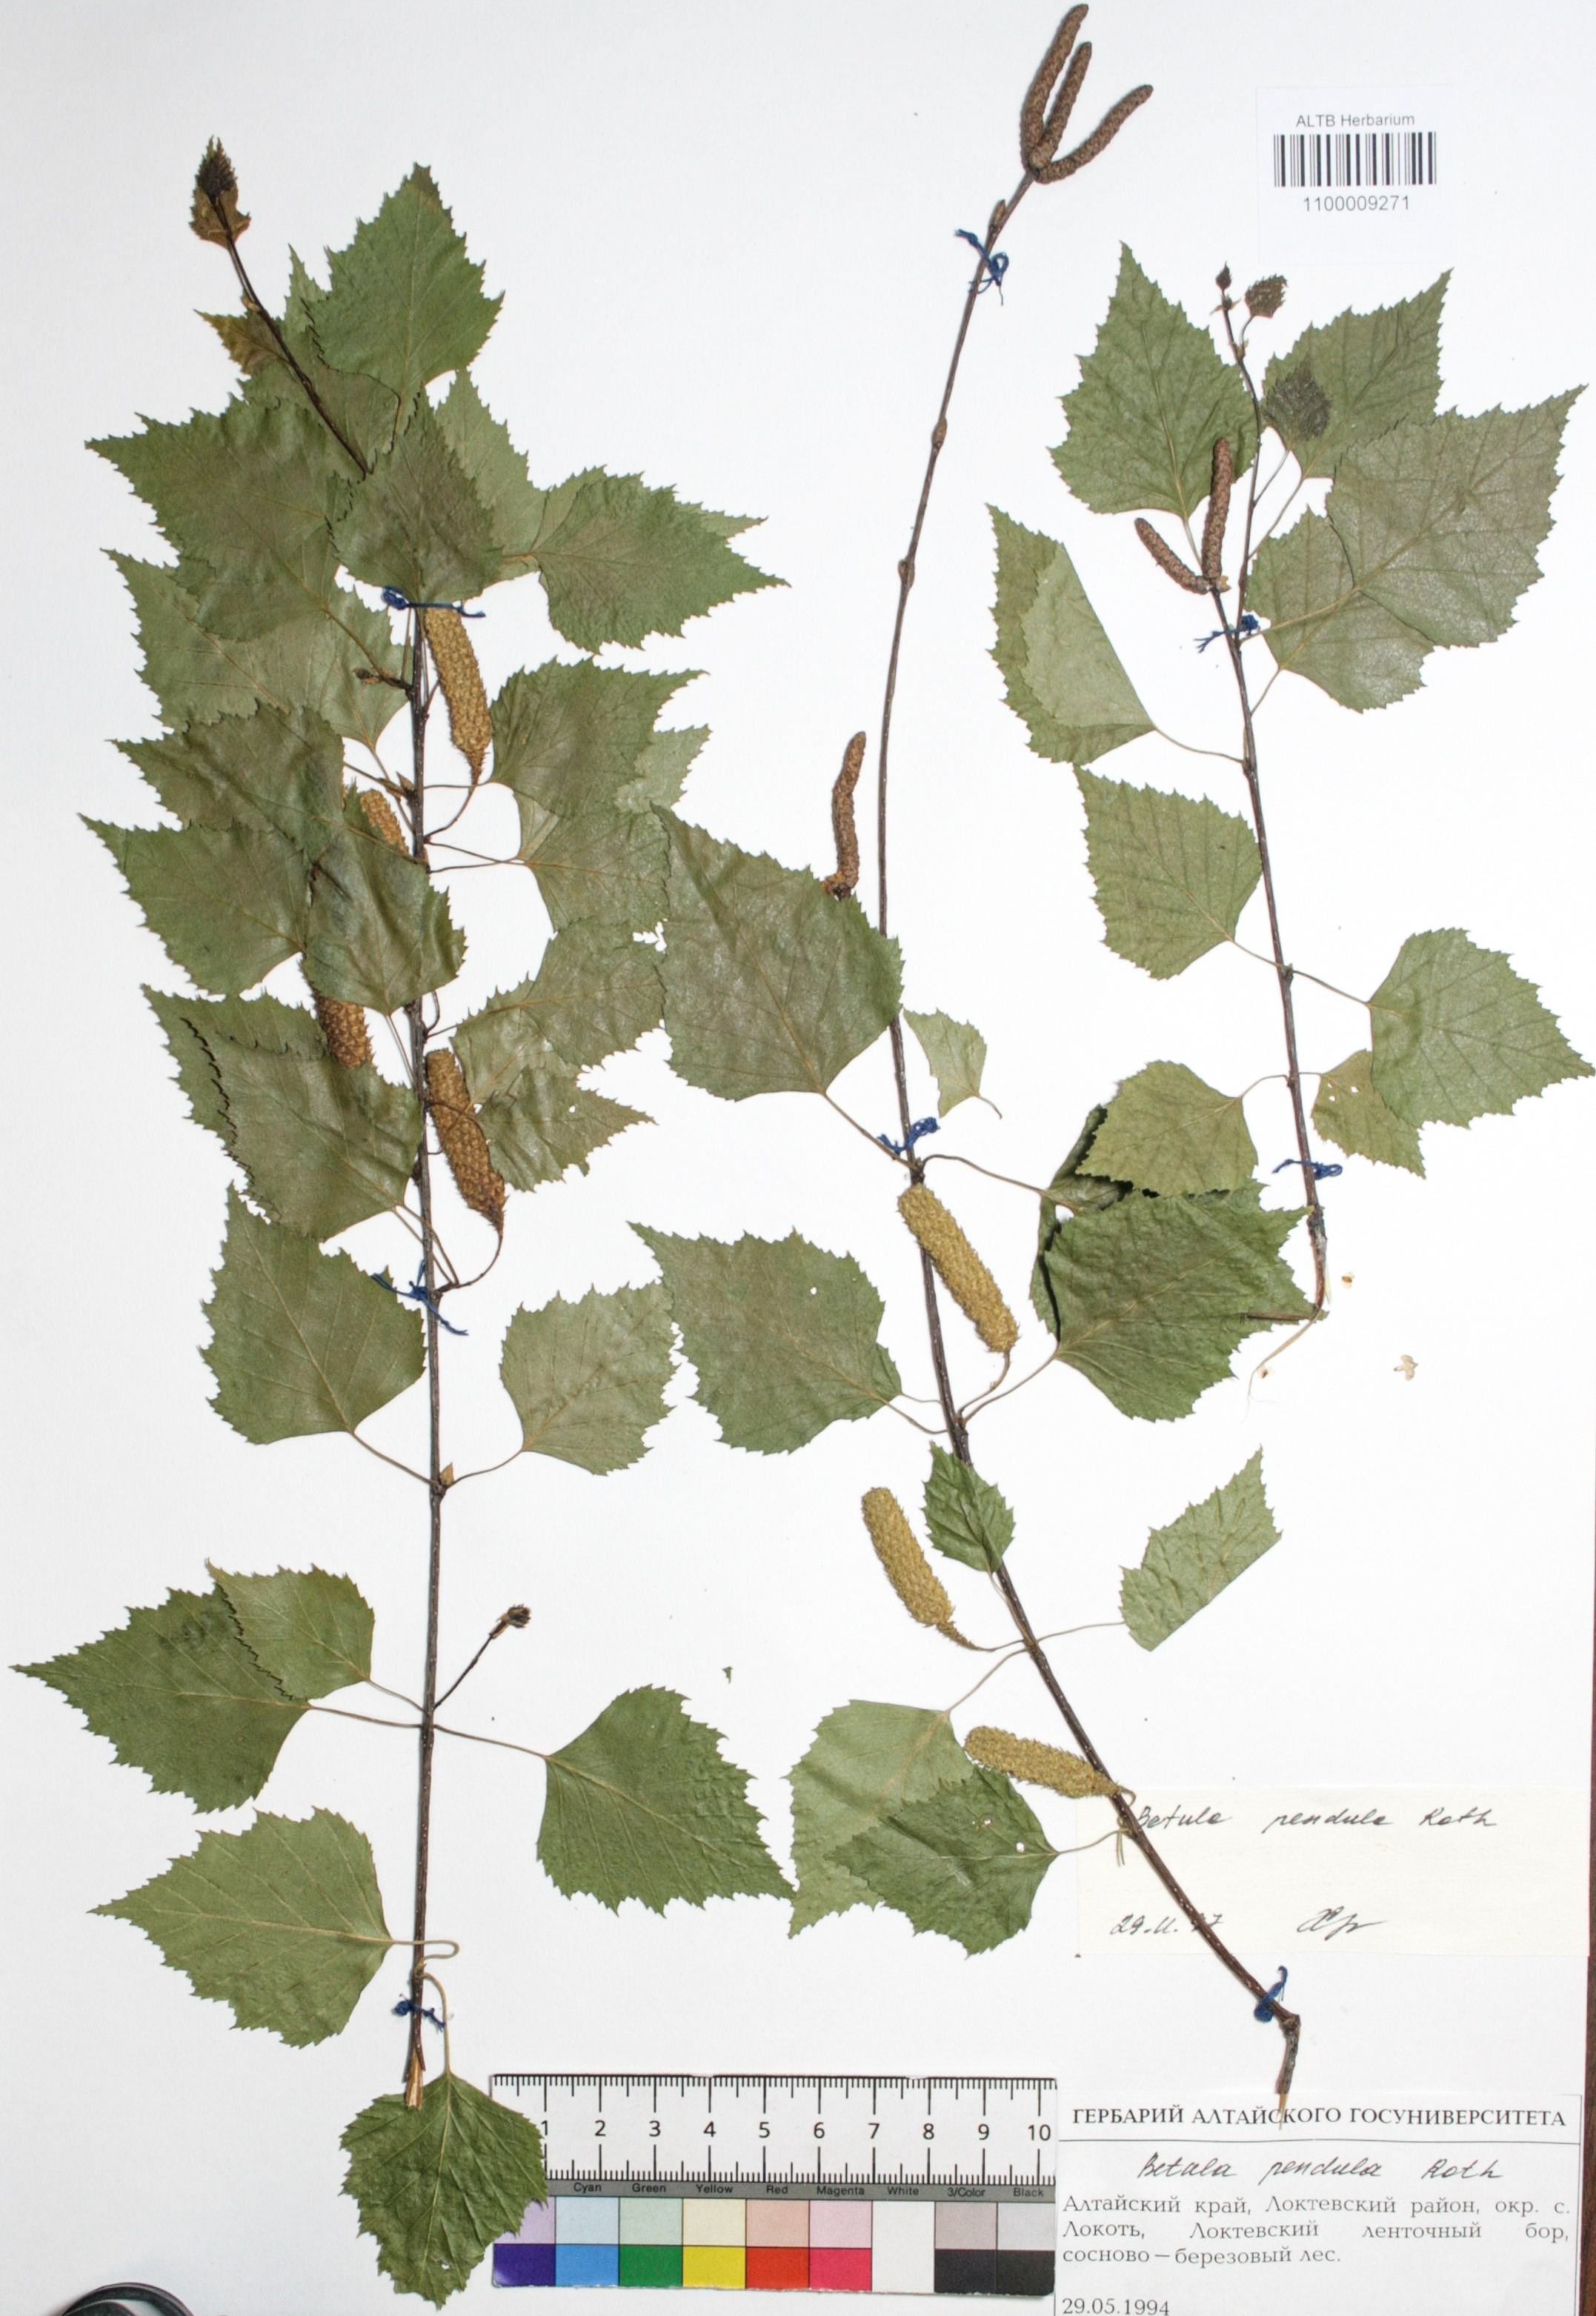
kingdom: Plantae
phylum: Tracheophyta
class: Magnoliopsida
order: Fagales
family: Betulaceae
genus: Betula
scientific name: Betula pendula
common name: Silver birch
